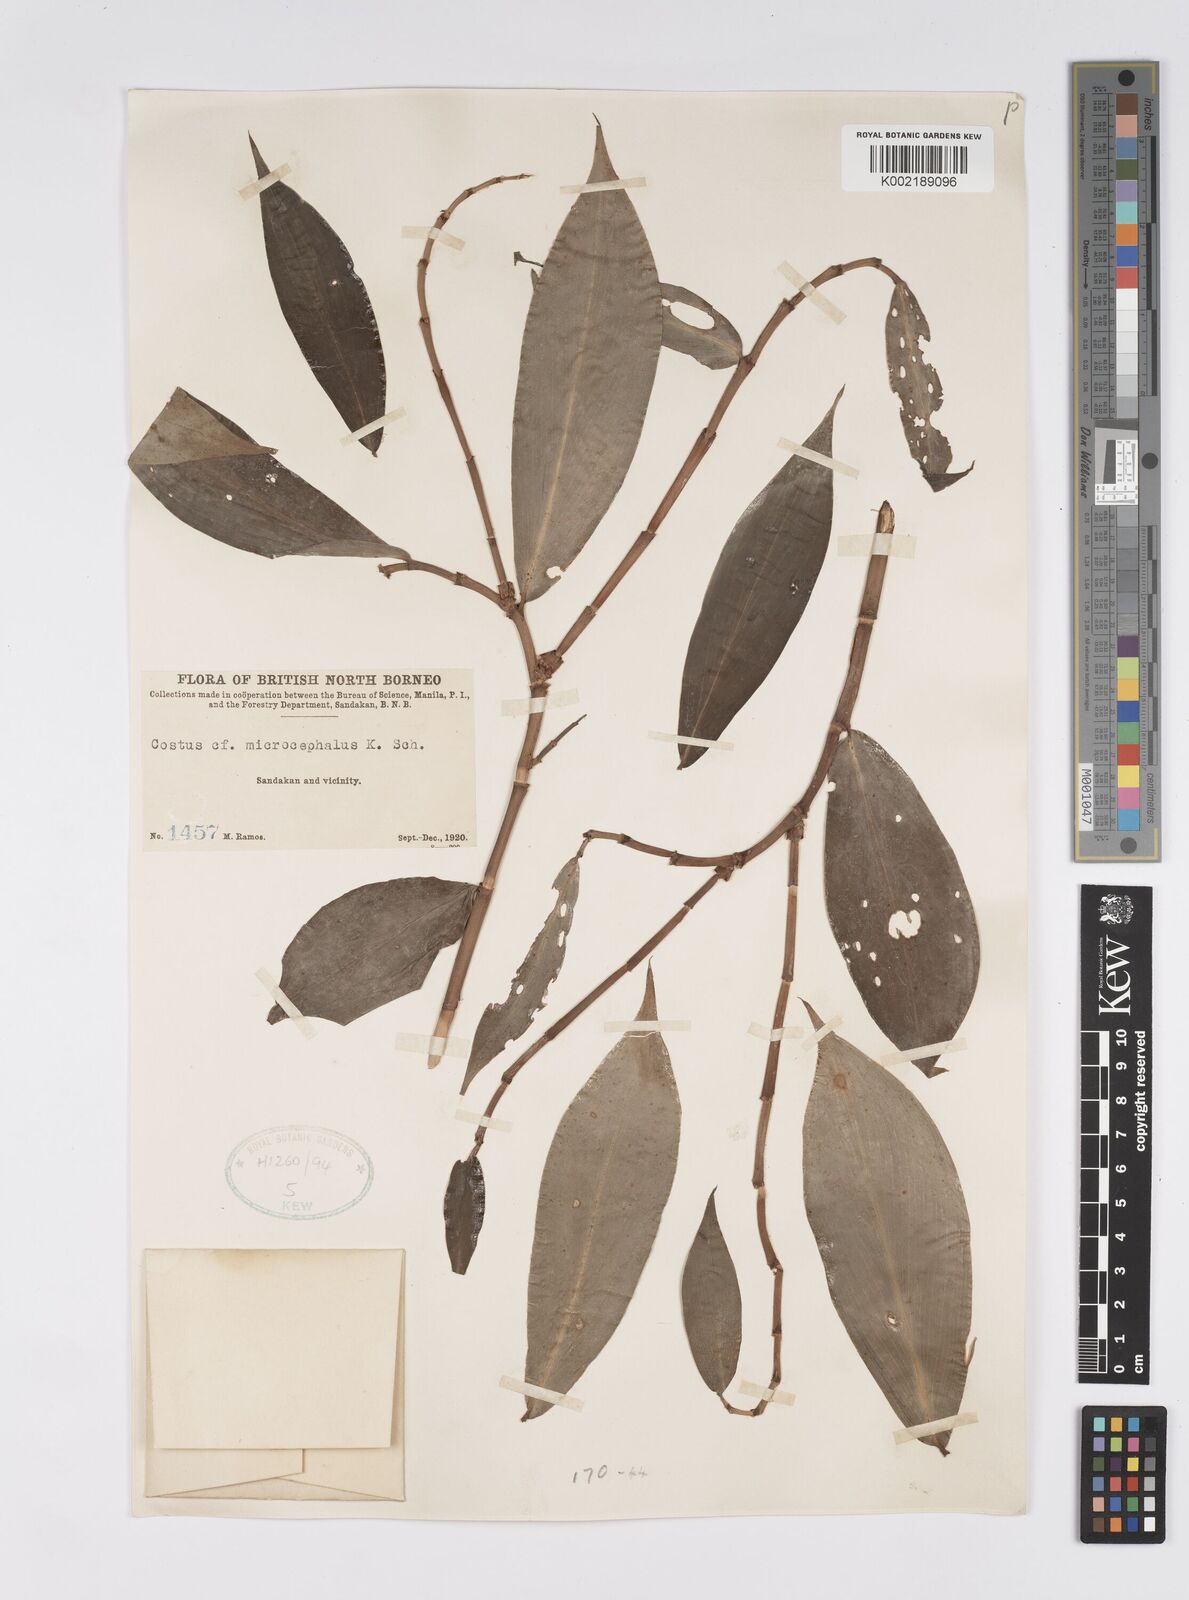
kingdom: Plantae
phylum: Tracheophyta
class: Liliopsida
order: Zingiberales
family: Costaceae
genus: Costus
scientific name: Costus microcephalus
